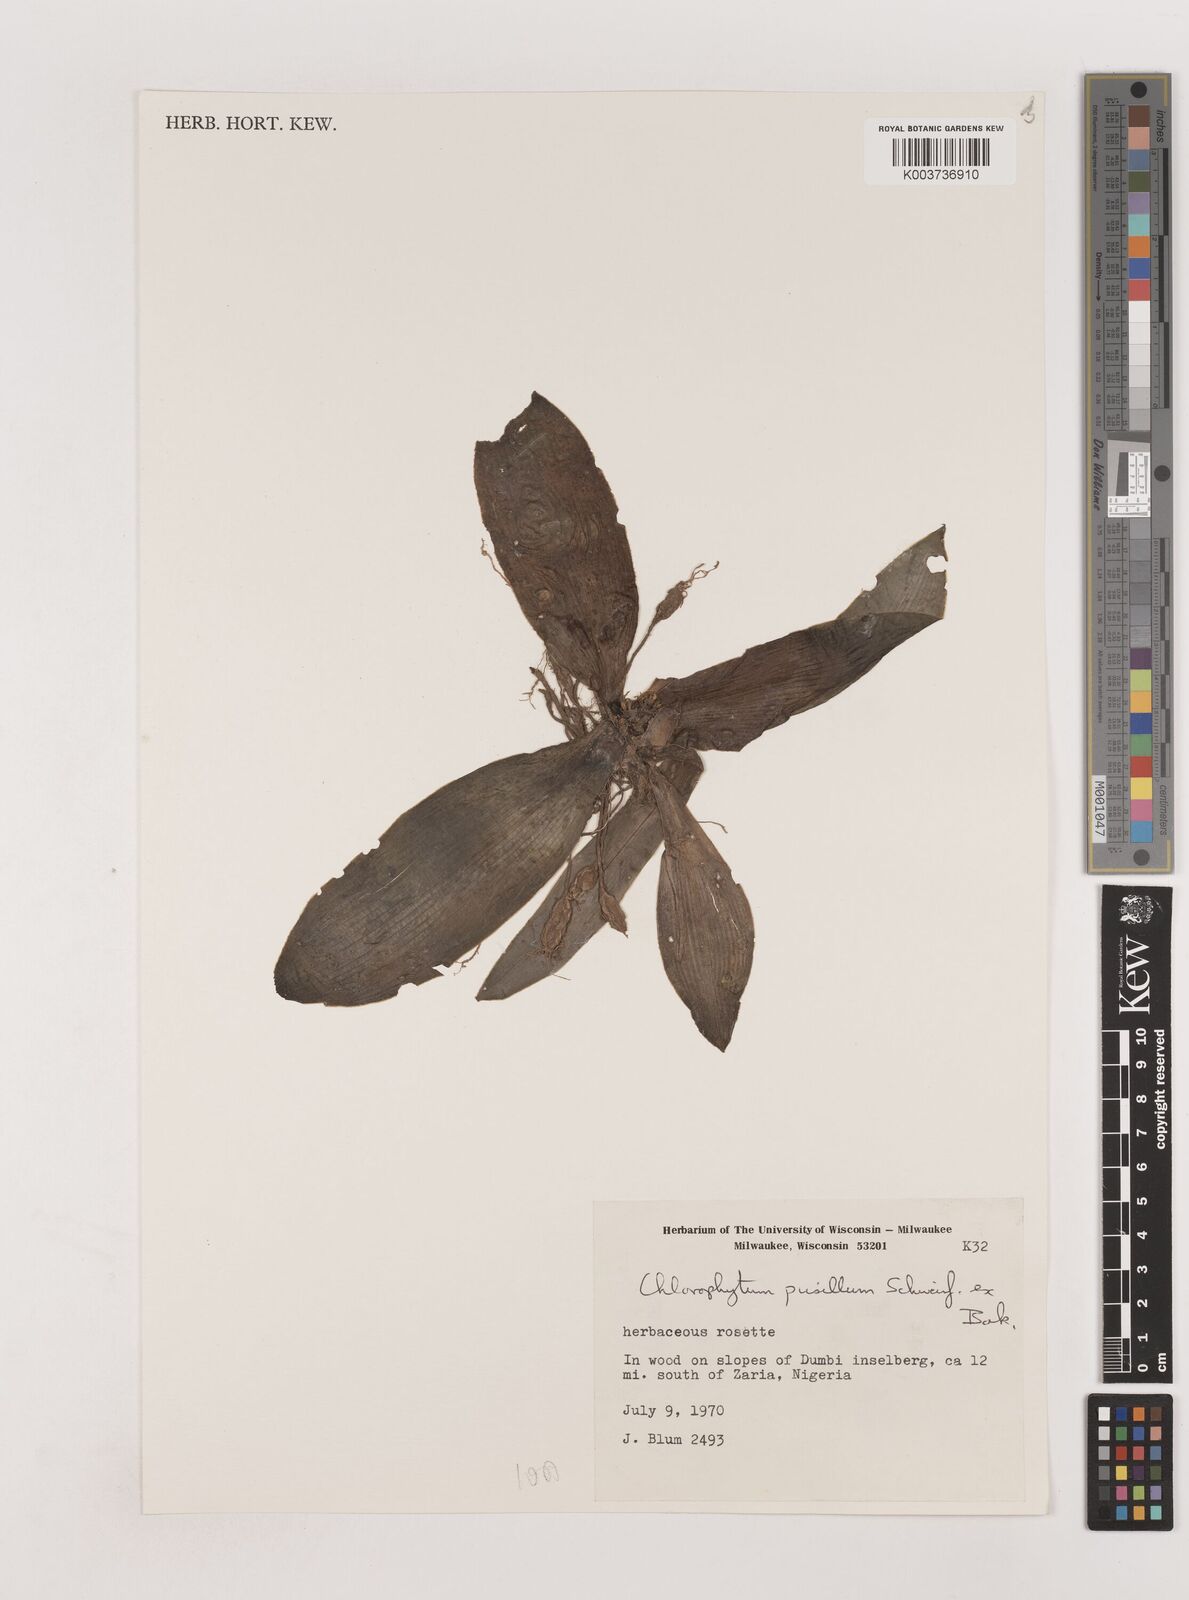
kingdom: Plantae
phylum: Tracheophyta
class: Liliopsida
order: Asparagales
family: Asparagaceae
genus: Chlorophytum
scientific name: Chlorophytum pusillum
